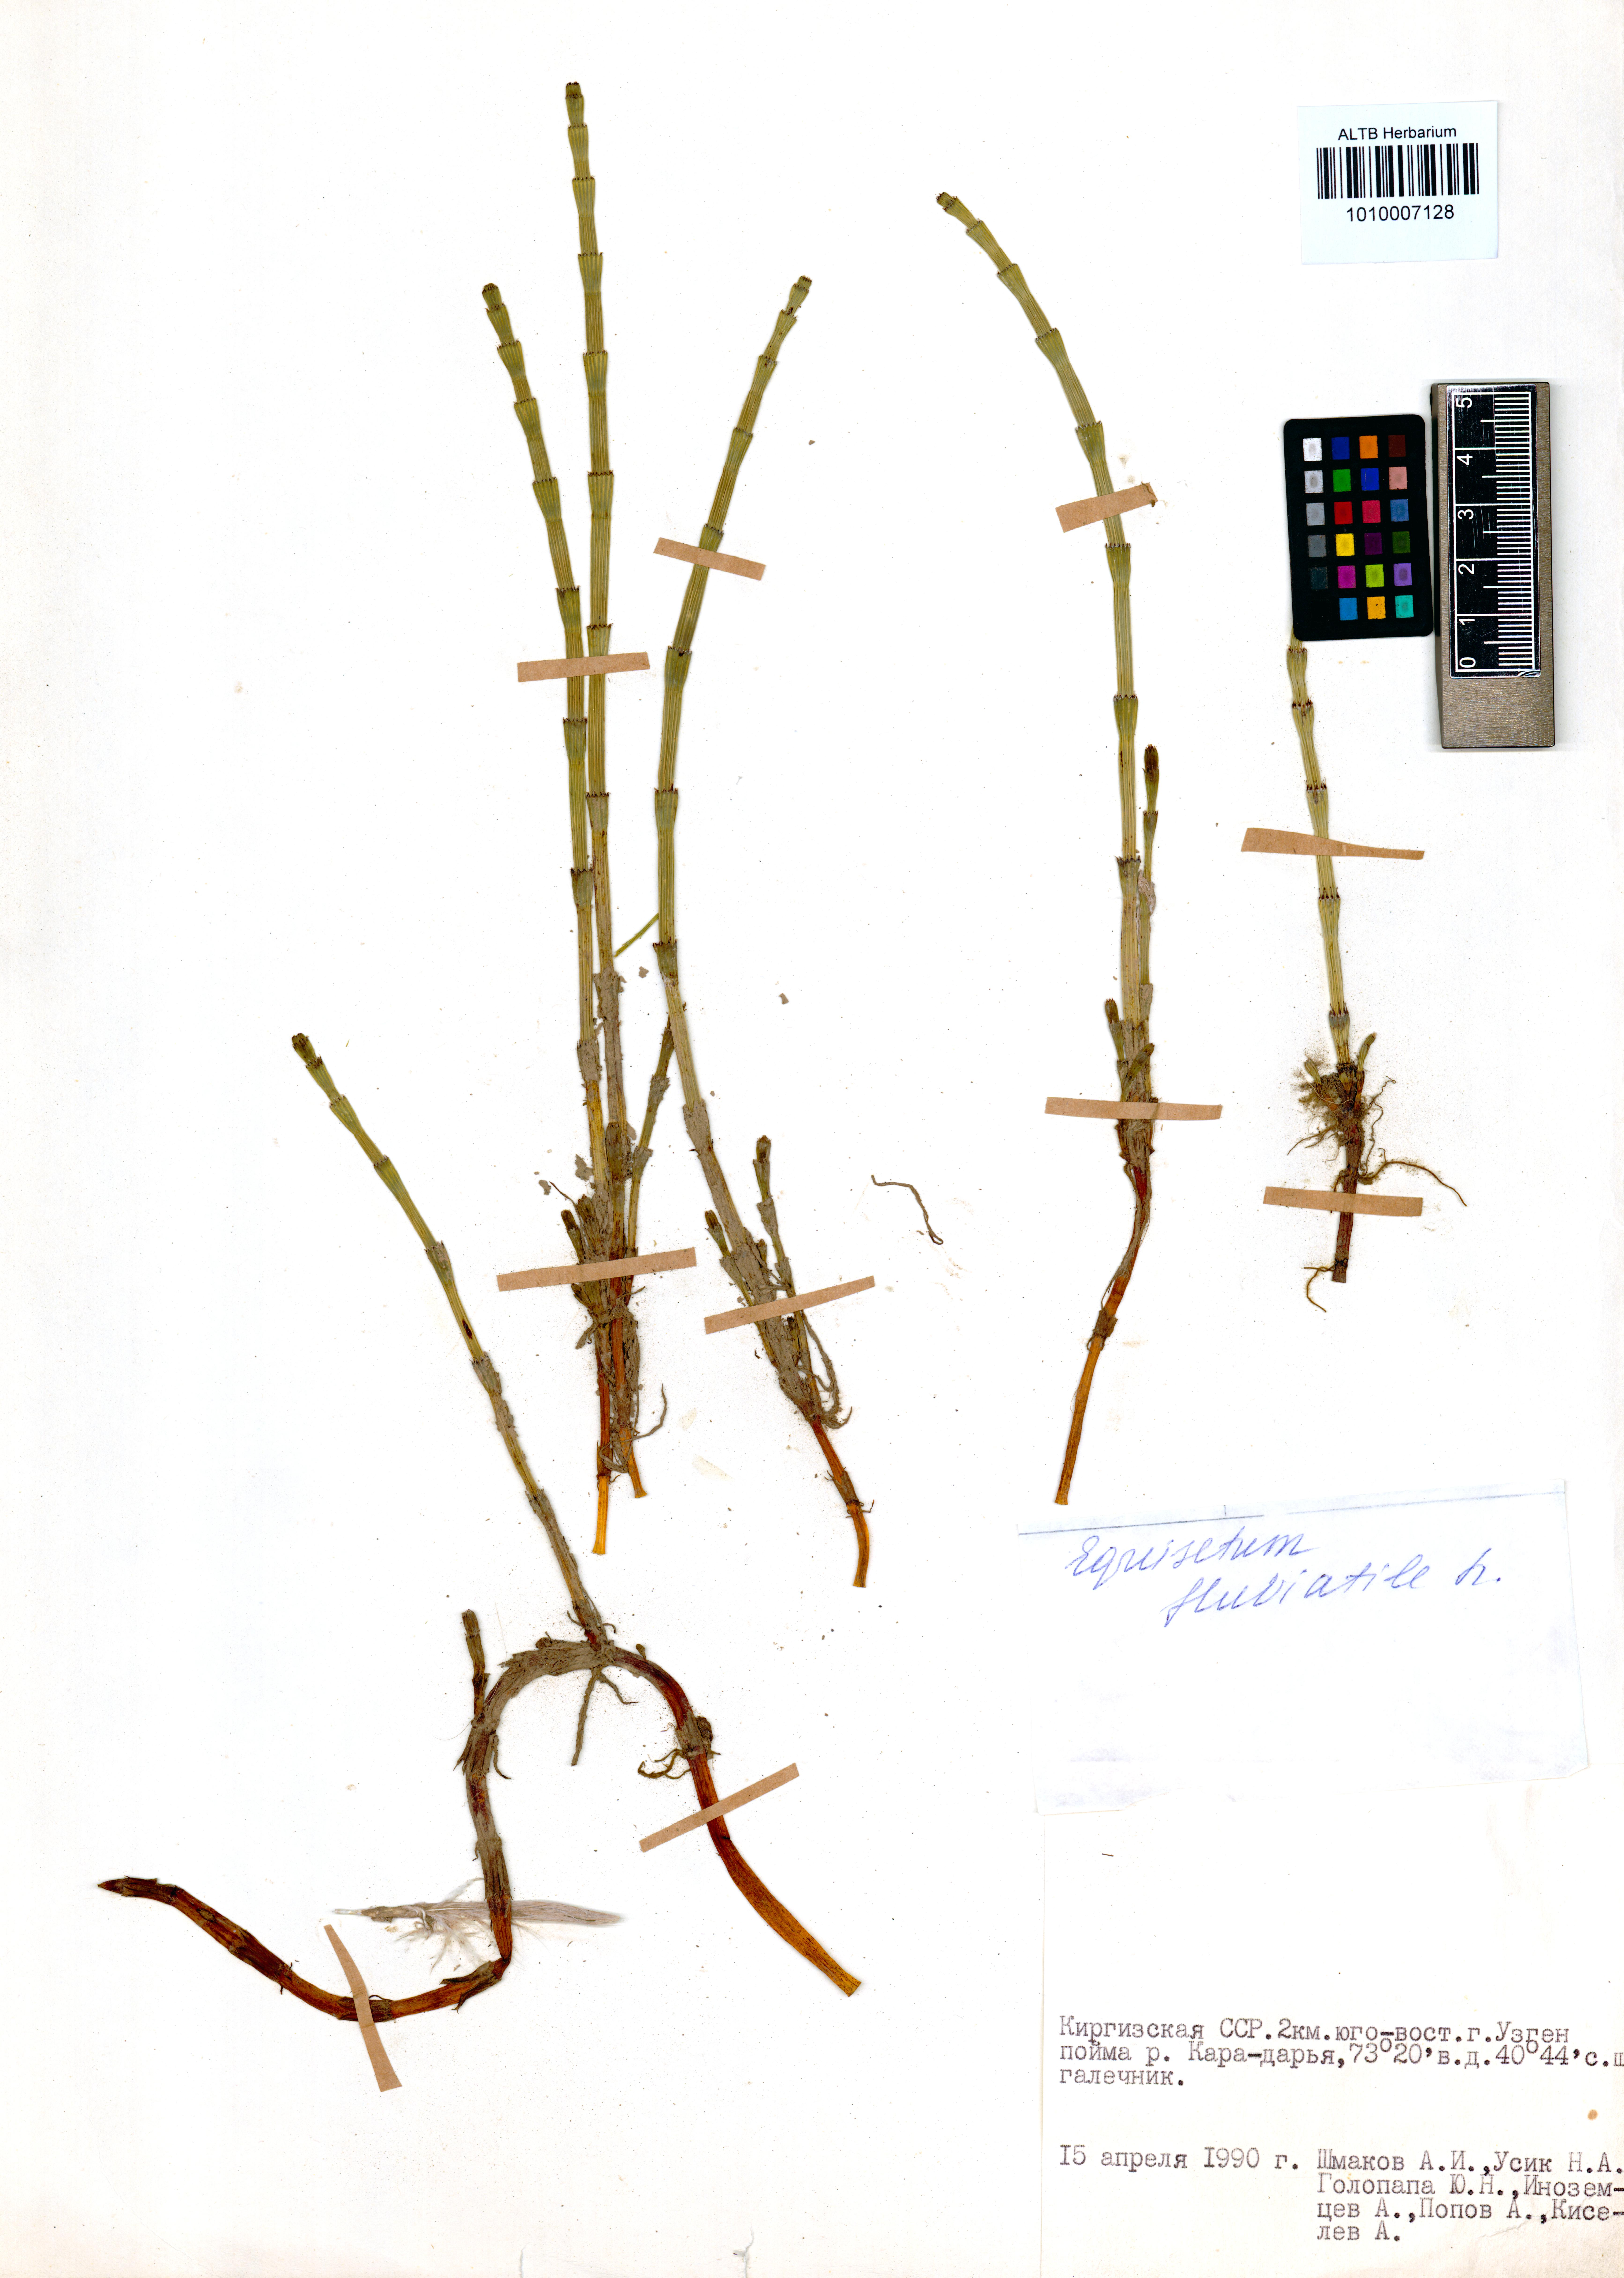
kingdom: Plantae
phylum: Tracheophyta
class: Polypodiopsida
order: Equisetales
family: Equisetaceae
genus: Equisetum
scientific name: Equisetum fluviatile
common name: Water horsetail
